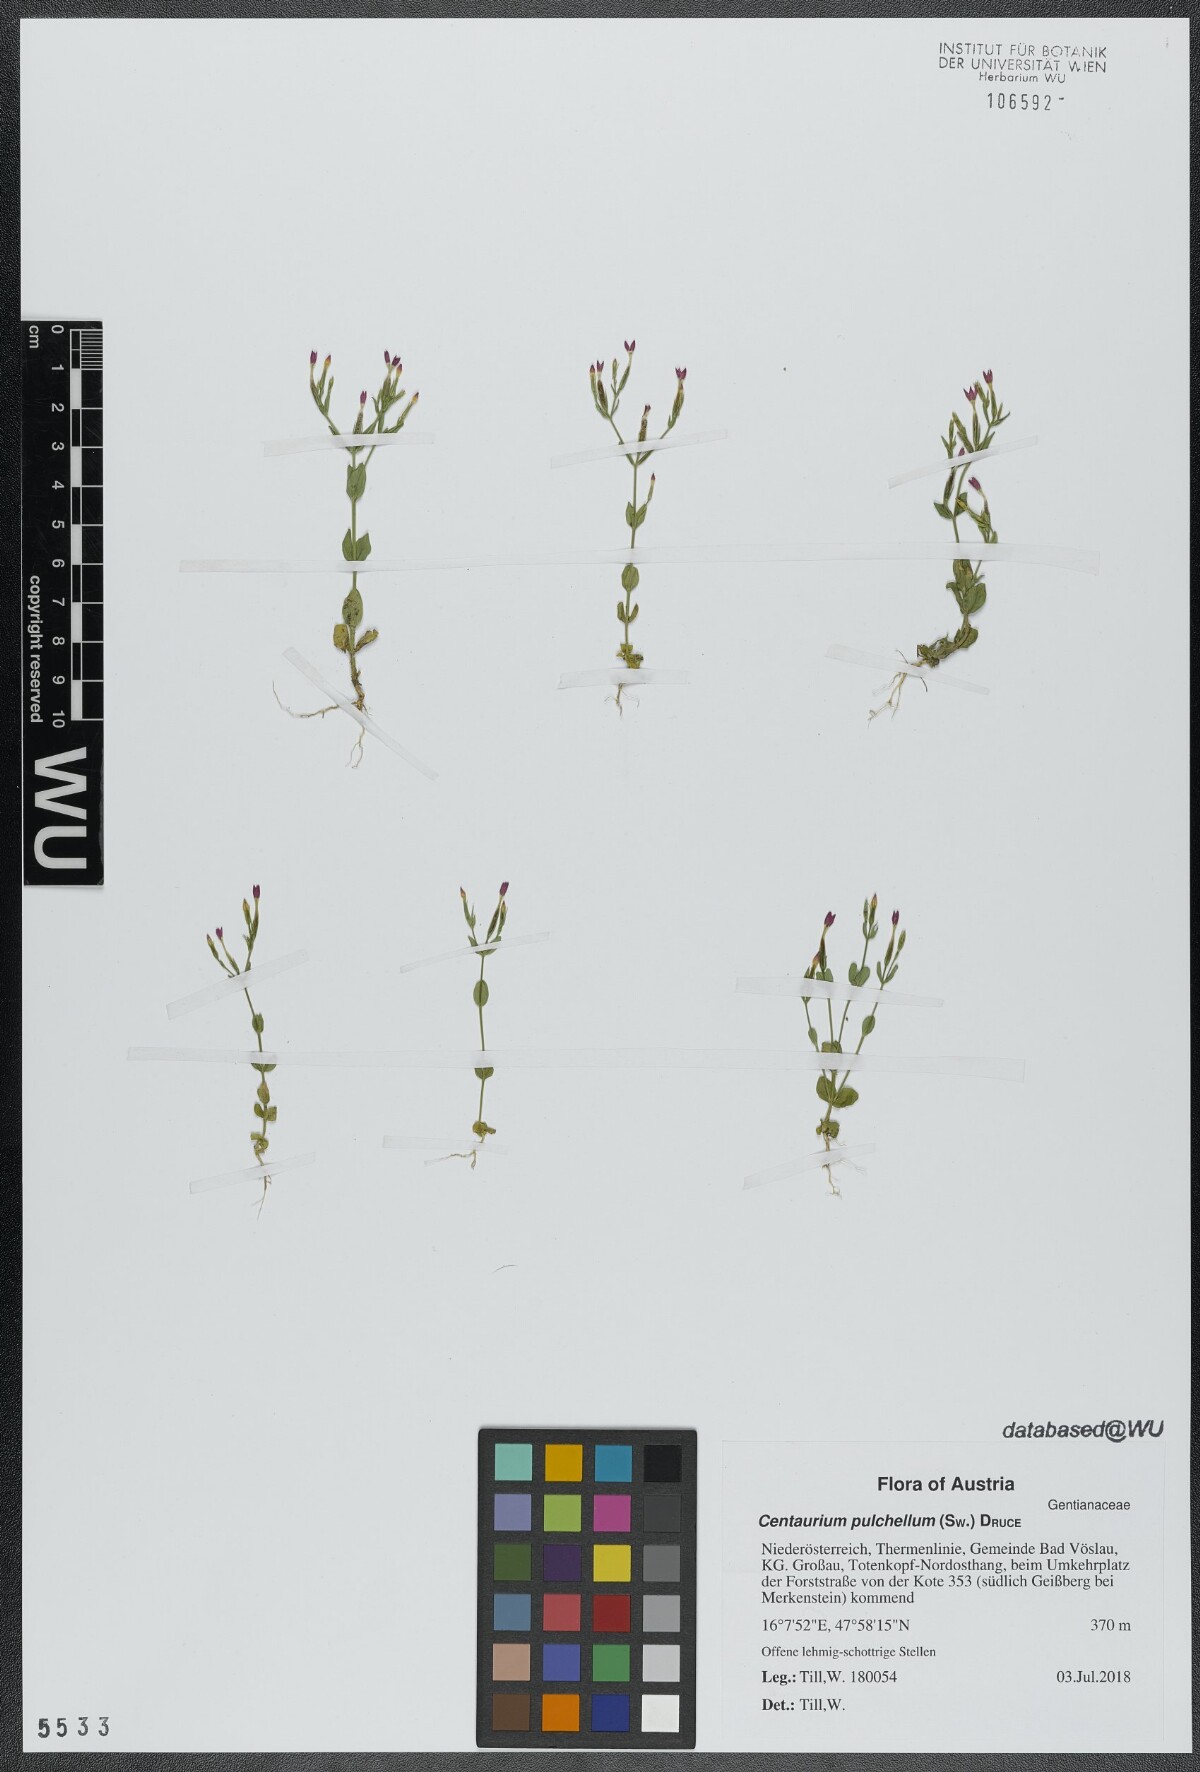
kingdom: Plantae
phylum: Tracheophyta
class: Magnoliopsida
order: Gentianales
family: Gentianaceae
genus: Centaurium
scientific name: Centaurium pulchellum
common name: Lesser centaury
